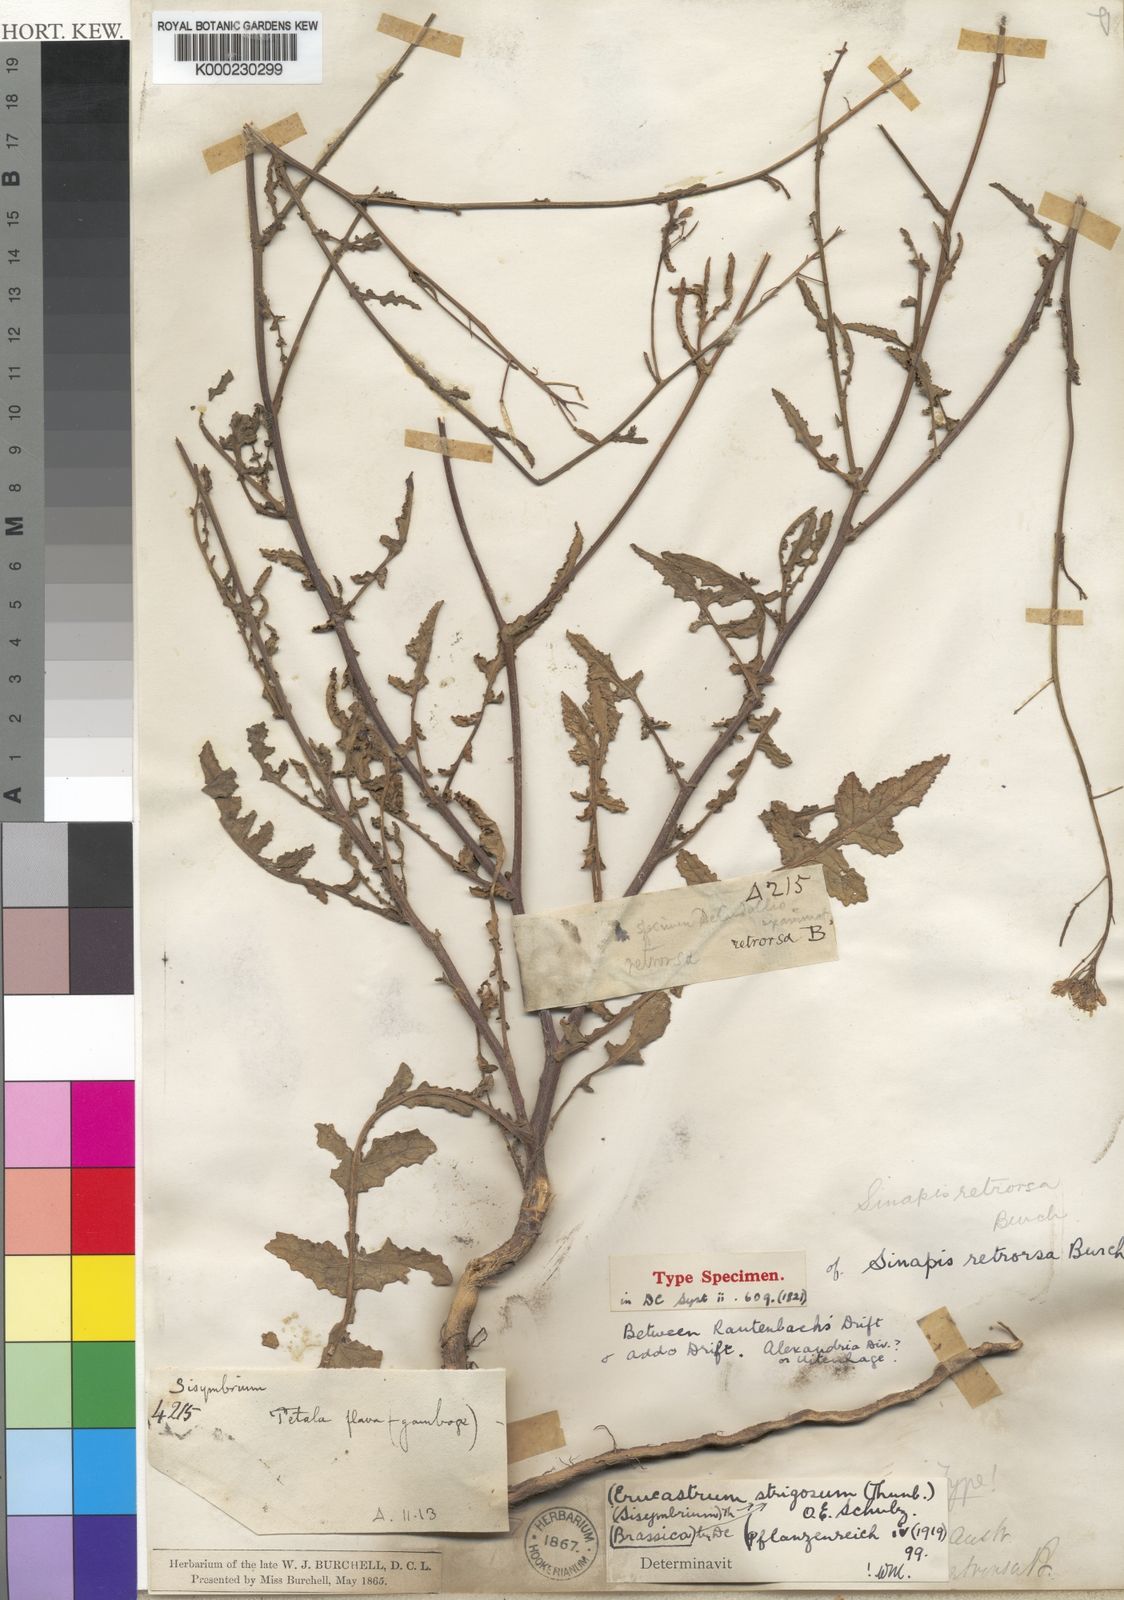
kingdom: Plantae
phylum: Tracheophyta
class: Magnoliopsida
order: Brassicales
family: Brassicaceae
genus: Erucastrum
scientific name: Erucastrum strigosum
